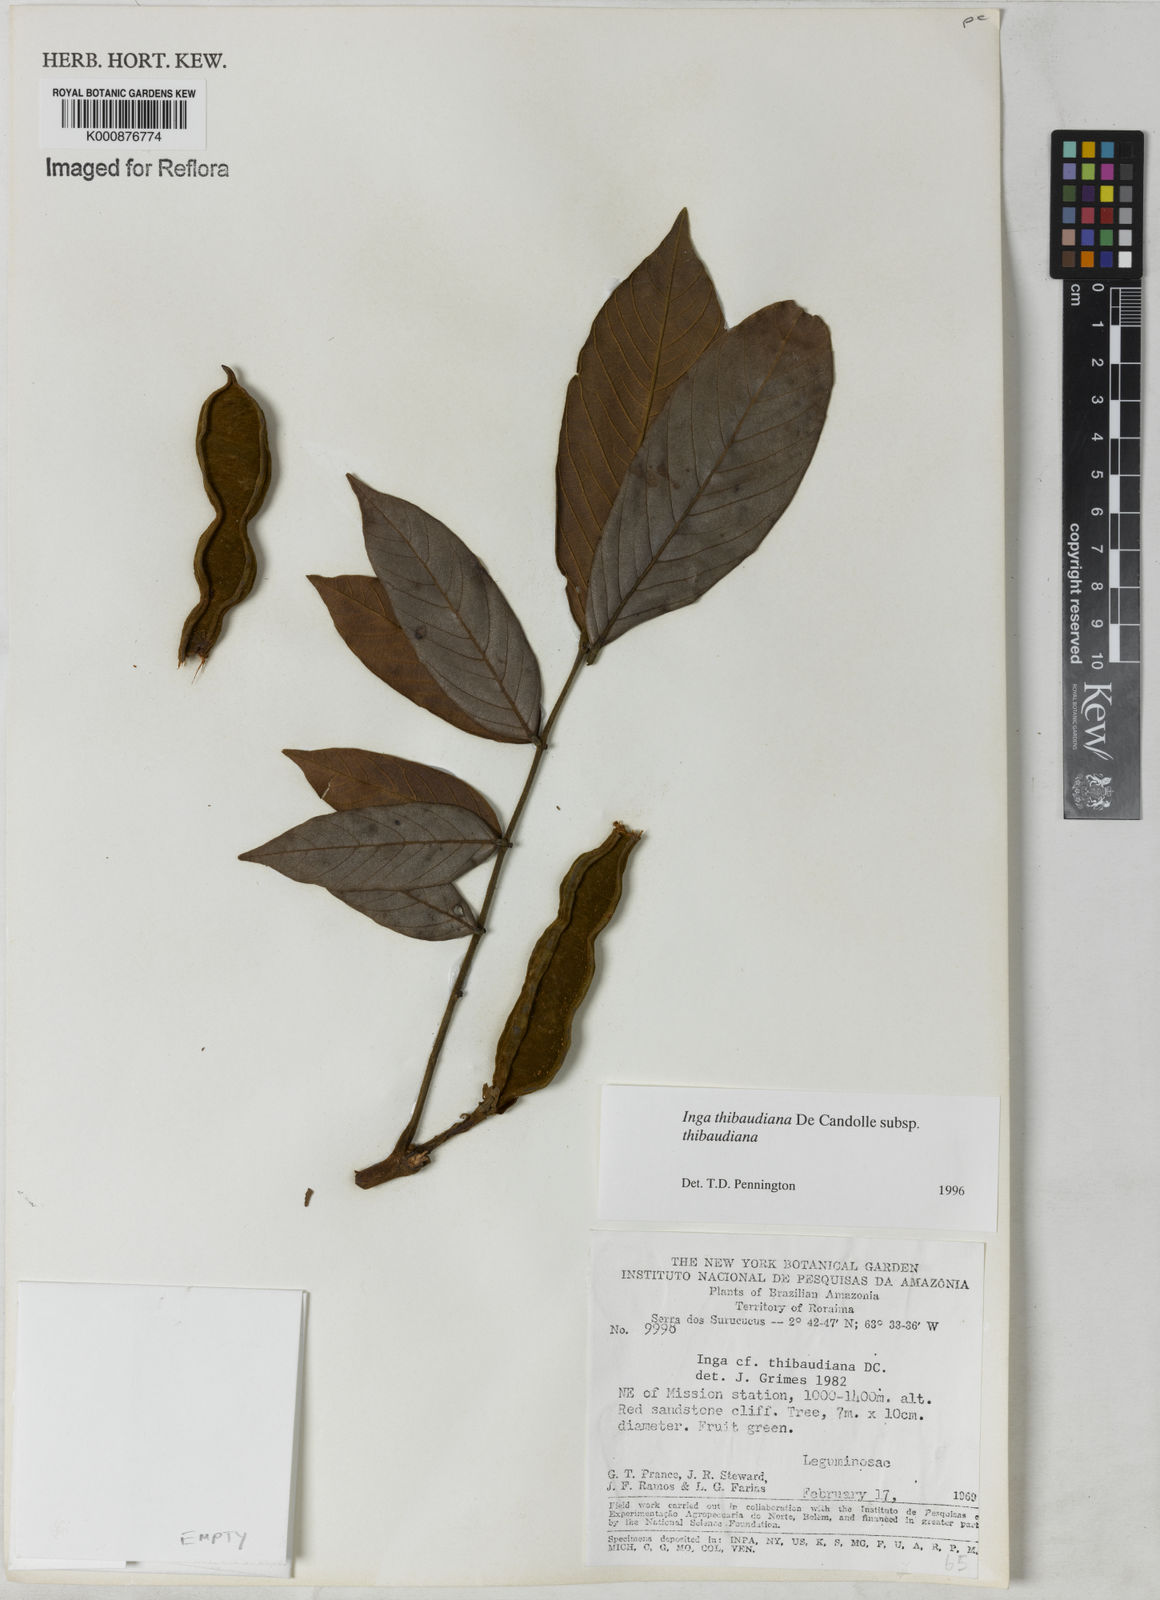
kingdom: Plantae
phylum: Tracheophyta
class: Magnoliopsida
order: Fabales
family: Fabaceae
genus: Inga
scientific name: Inga thibaudiana
